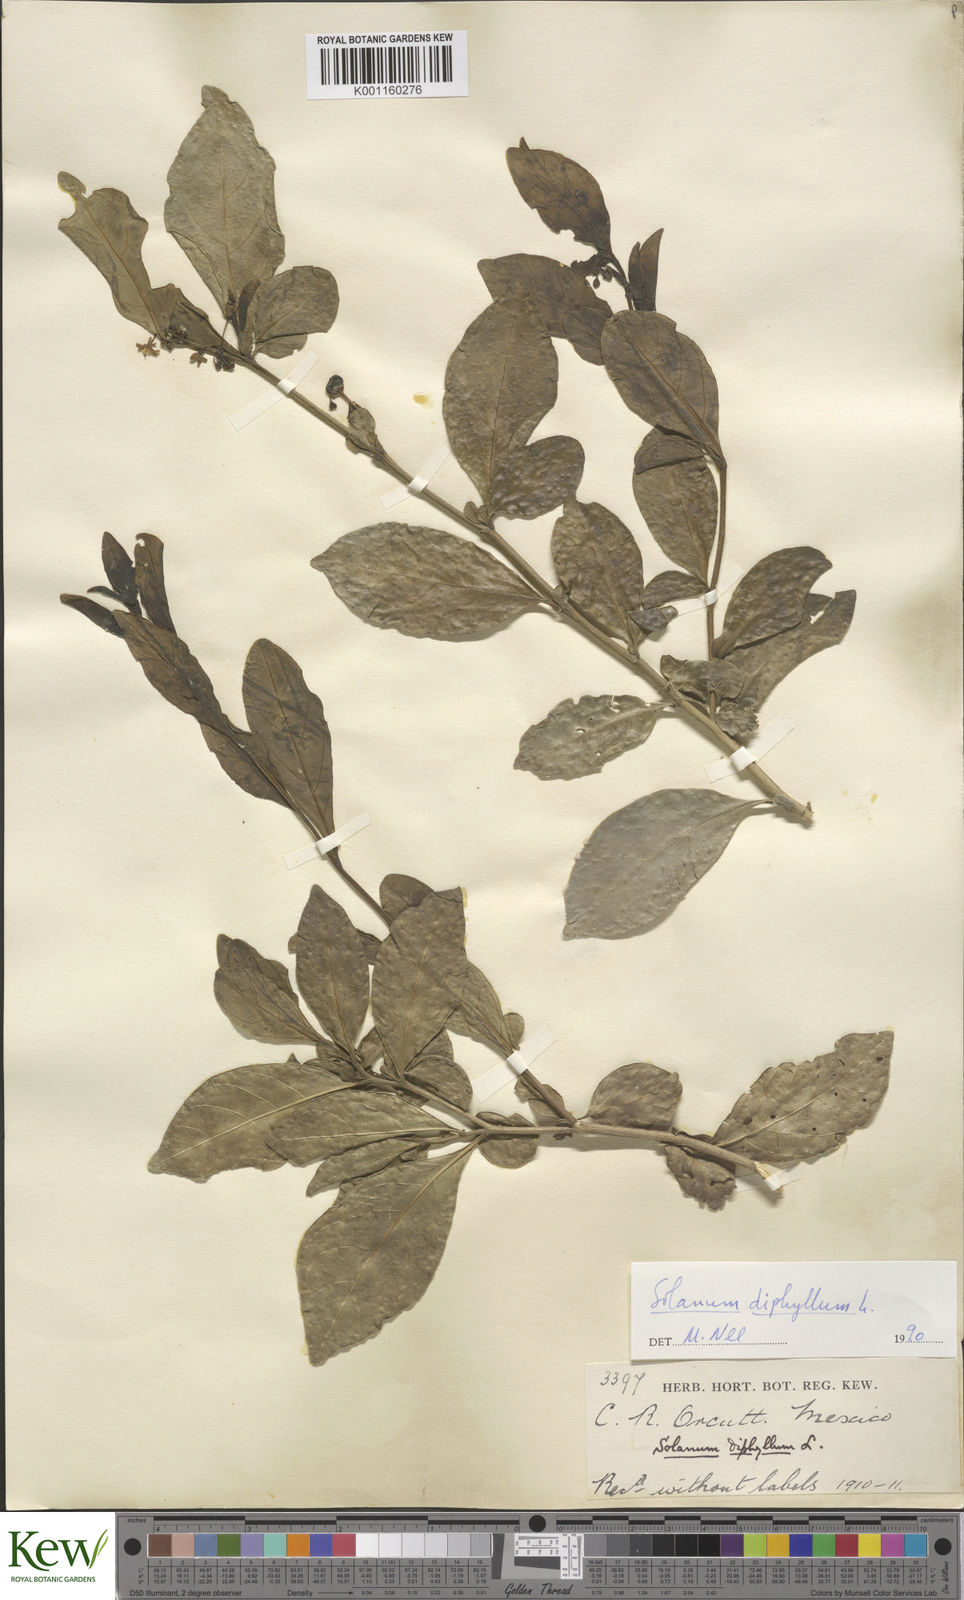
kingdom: Plantae
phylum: Tracheophyta
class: Magnoliopsida
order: Solanales
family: Solanaceae
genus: Solanum
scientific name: Solanum diphyllum
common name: Twoleaf nightshade
